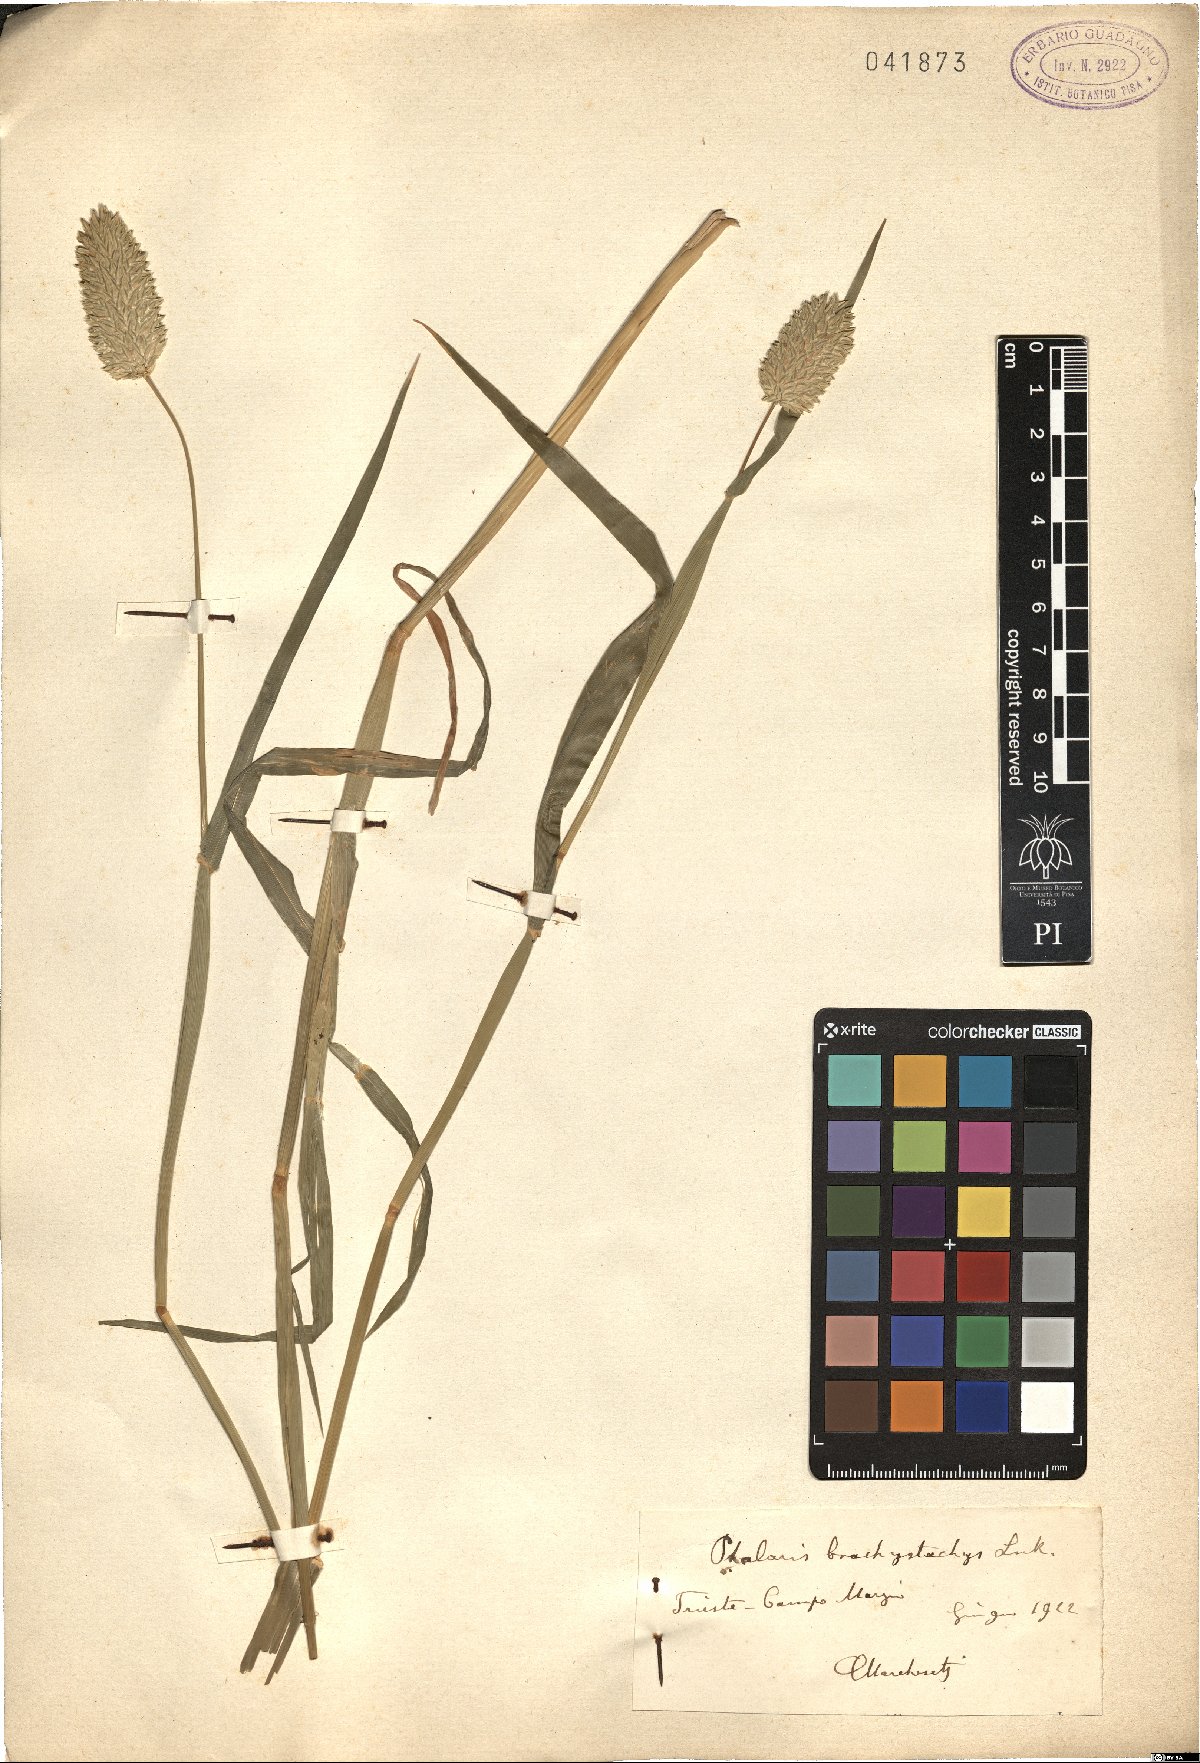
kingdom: Plantae
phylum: Tracheophyta
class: Liliopsida
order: Poales
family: Poaceae
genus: Phalaris
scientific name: Phalaris brachystachys
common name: Confused canary-grass
